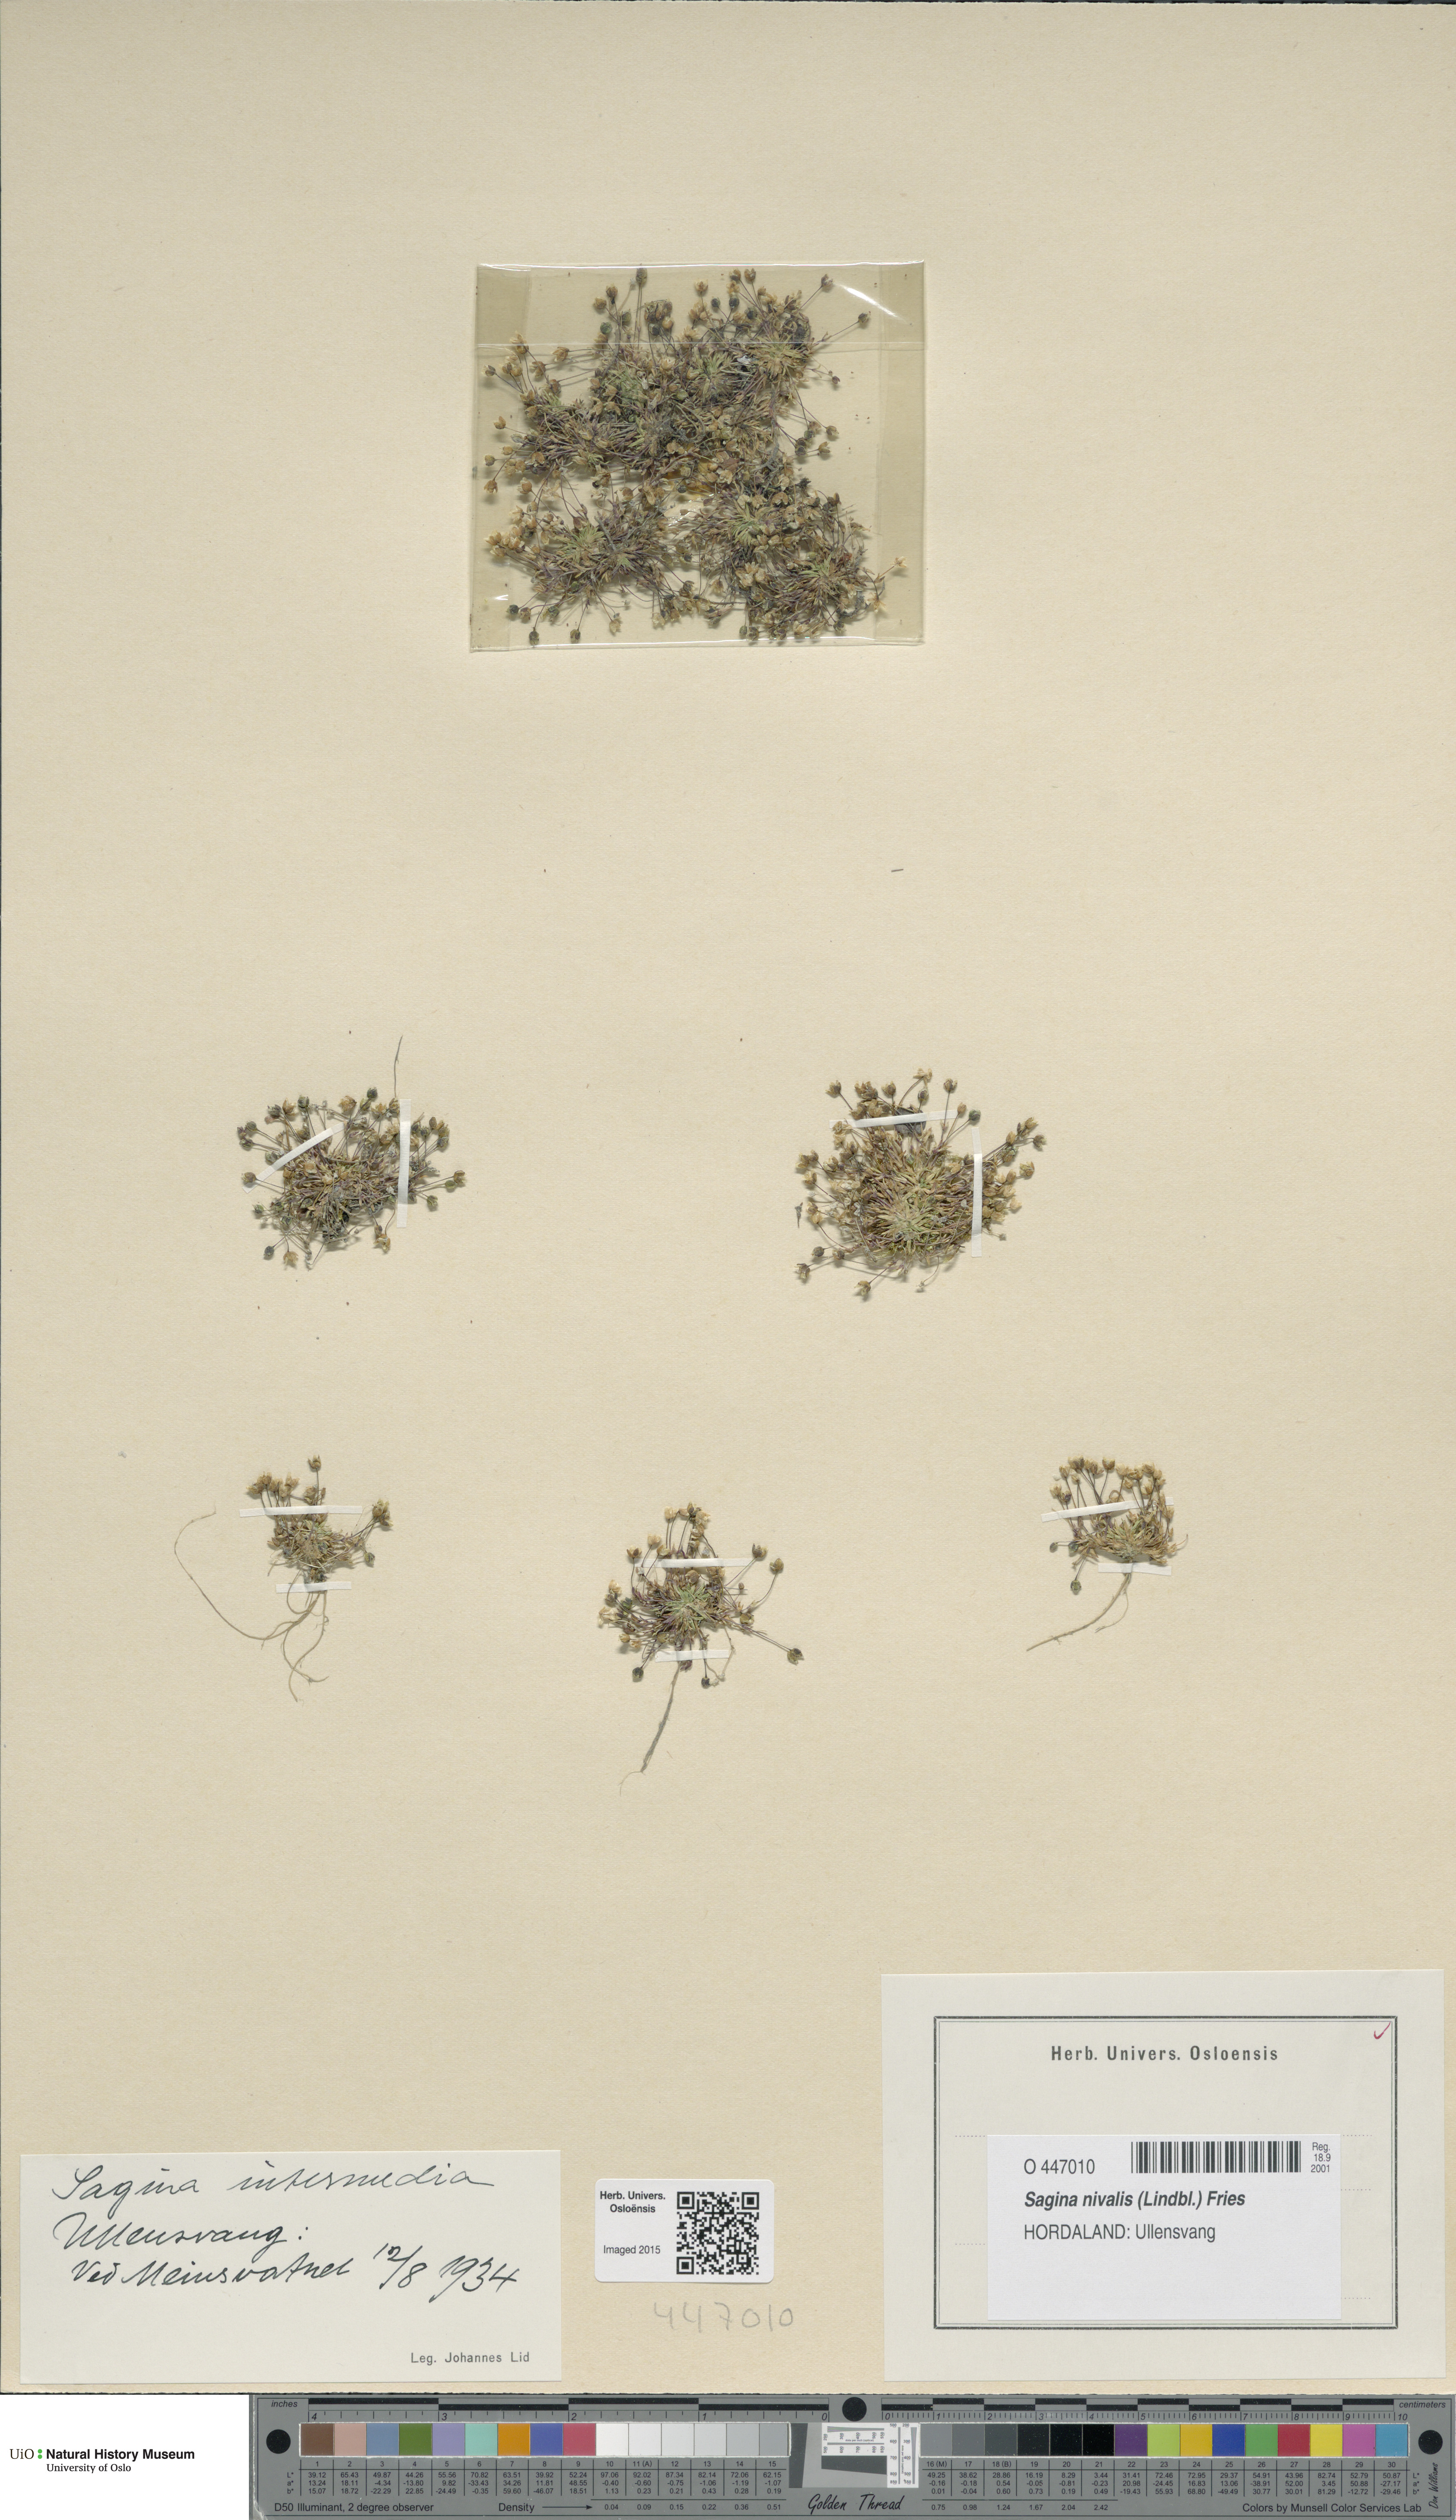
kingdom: Plantae
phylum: Tracheophyta
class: Magnoliopsida
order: Caryophyllales
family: Caryophyllaceae
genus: Sagina
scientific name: Sagina nivalis
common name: Snow pearlwort
